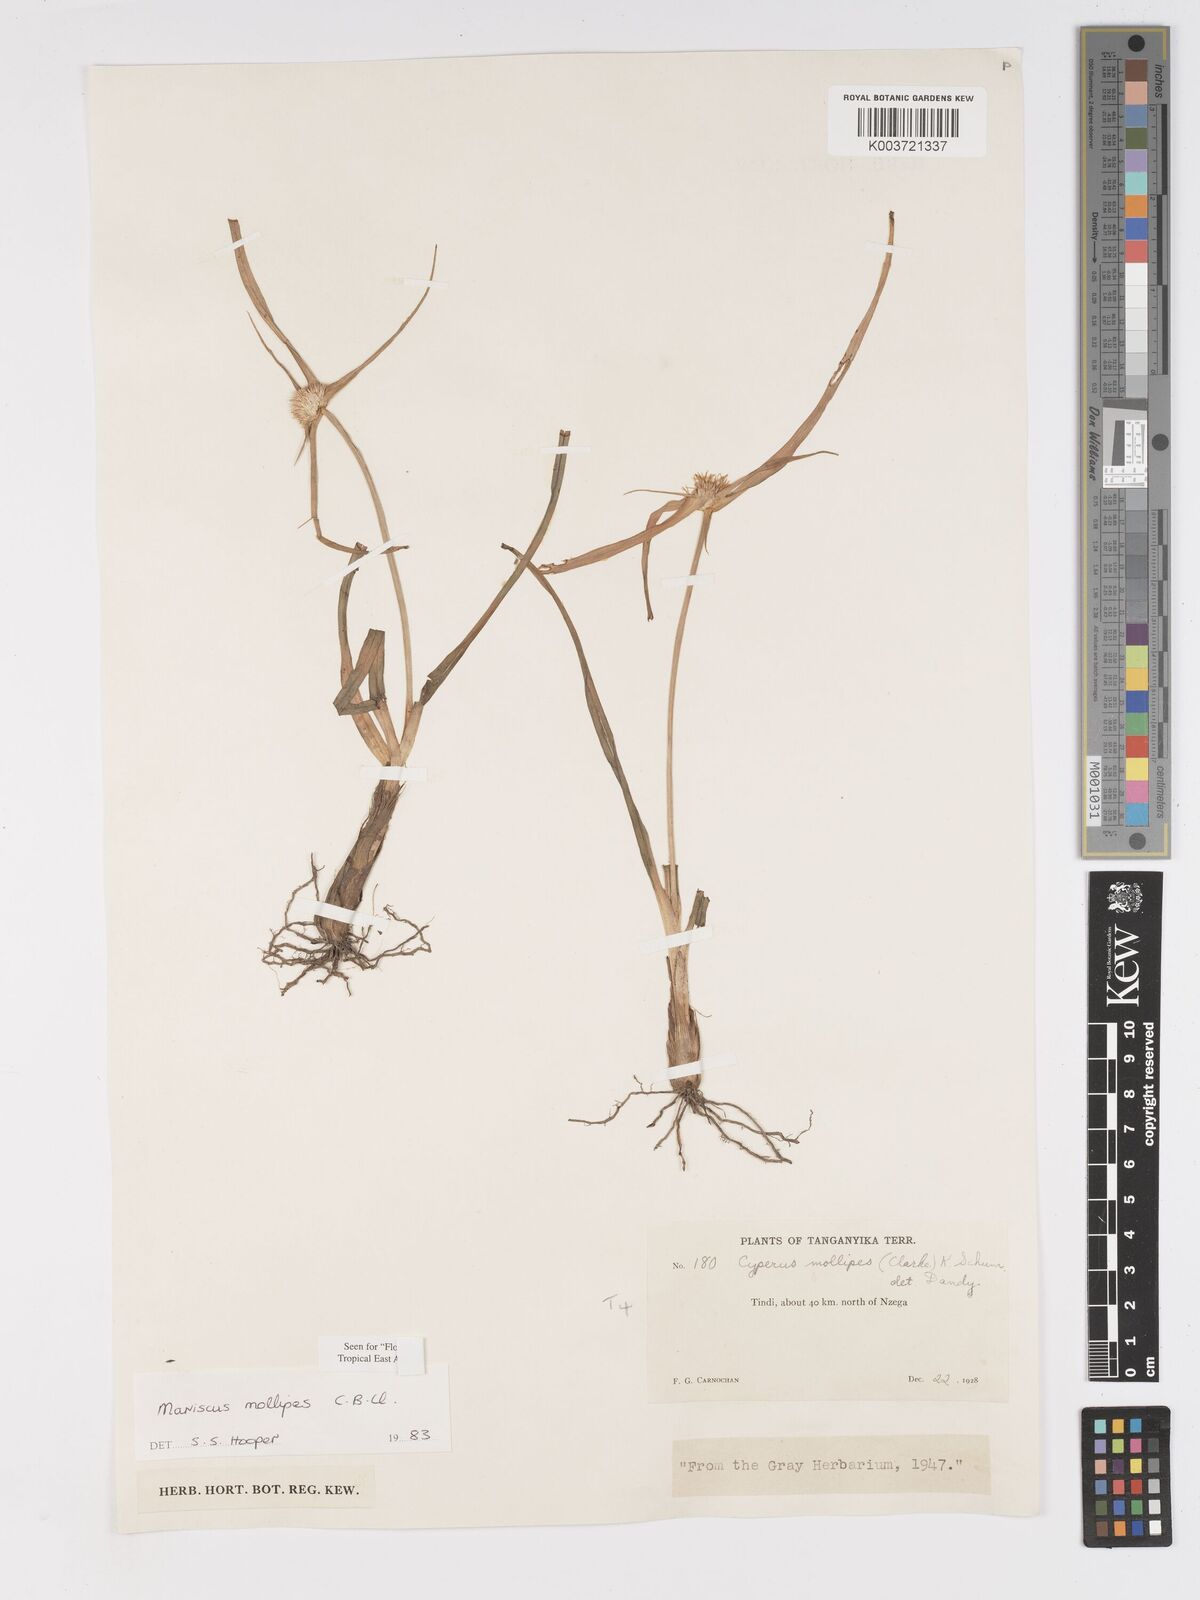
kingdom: Plantae
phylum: Tracheophyta
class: Liliopsida
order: Poales
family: Cyperaceae
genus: Cyperus
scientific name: Cyperus mollipes
